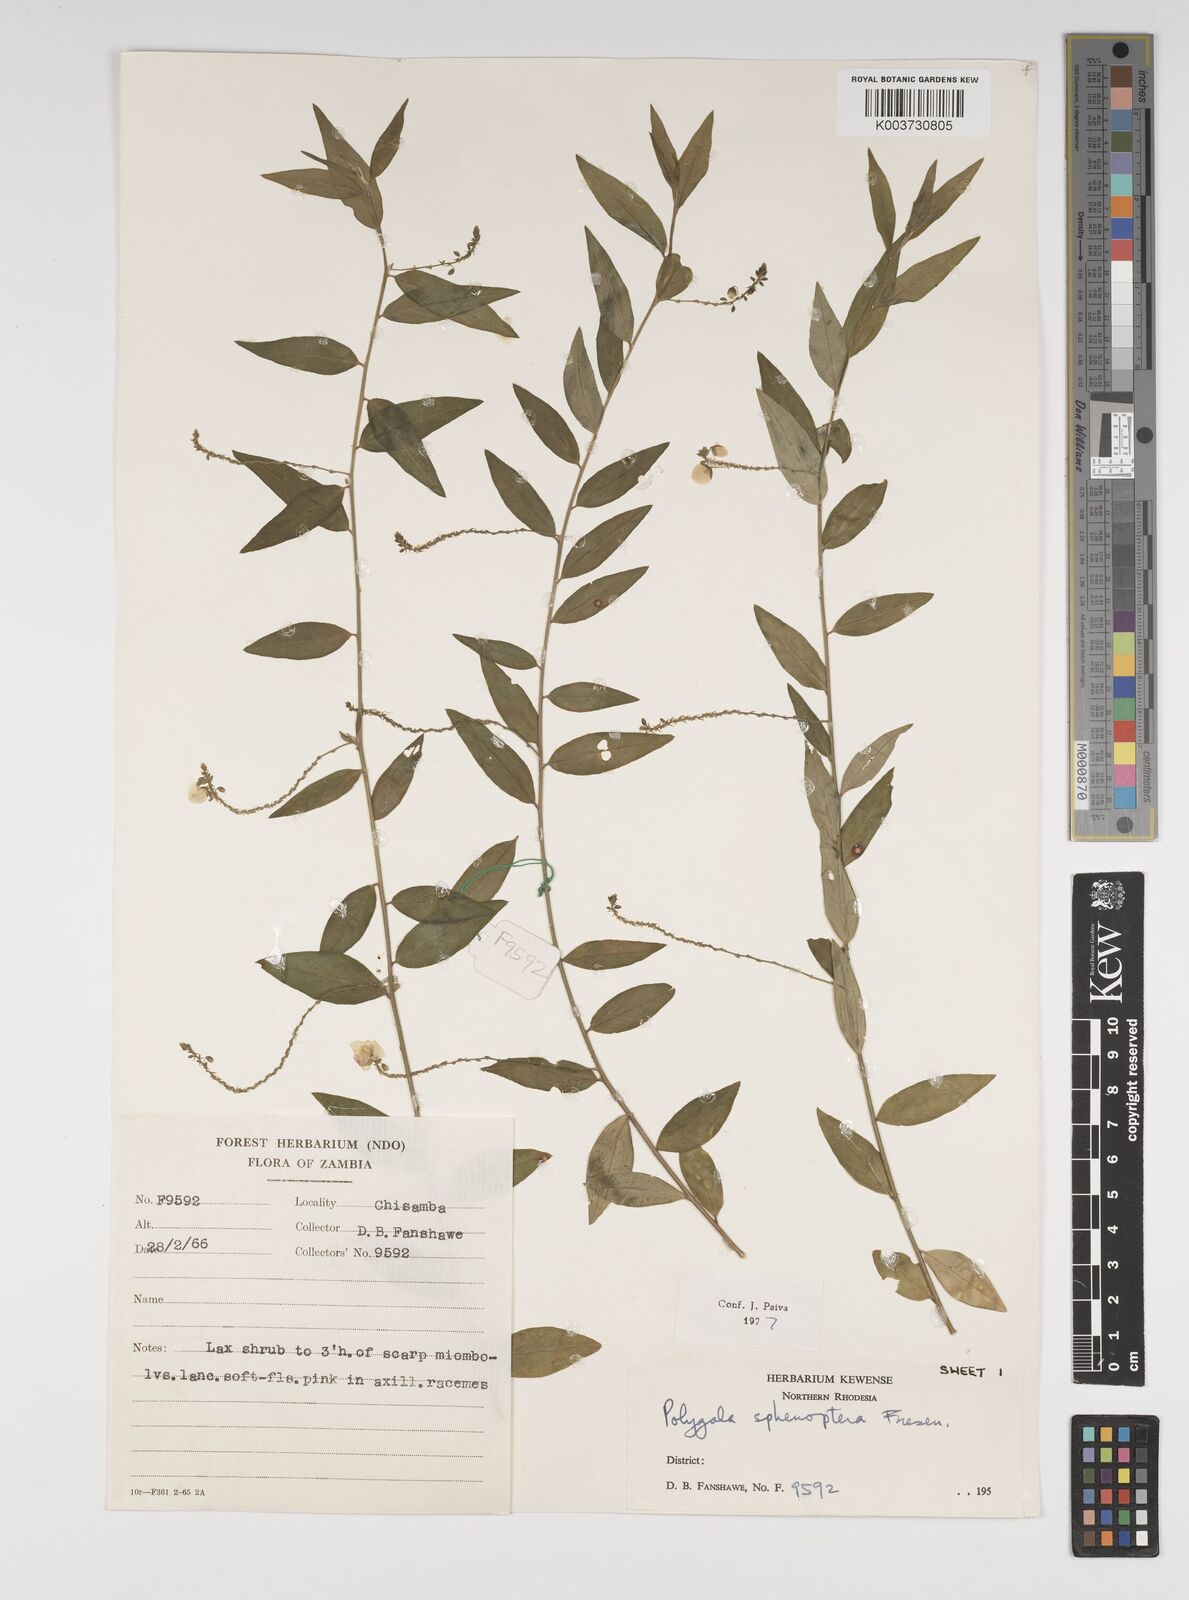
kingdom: Plantae
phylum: Tracheophyta
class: Magnoliopsida
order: Fabales
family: Polygalaceae
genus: Polygala
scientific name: Polygala sphenoptera
